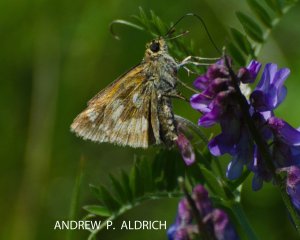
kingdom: Animalia
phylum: Arthropoda
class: Insecta
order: Lepidoptera
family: Hesperiidae
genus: Polites
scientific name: Polites
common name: Long Dash Skipper
